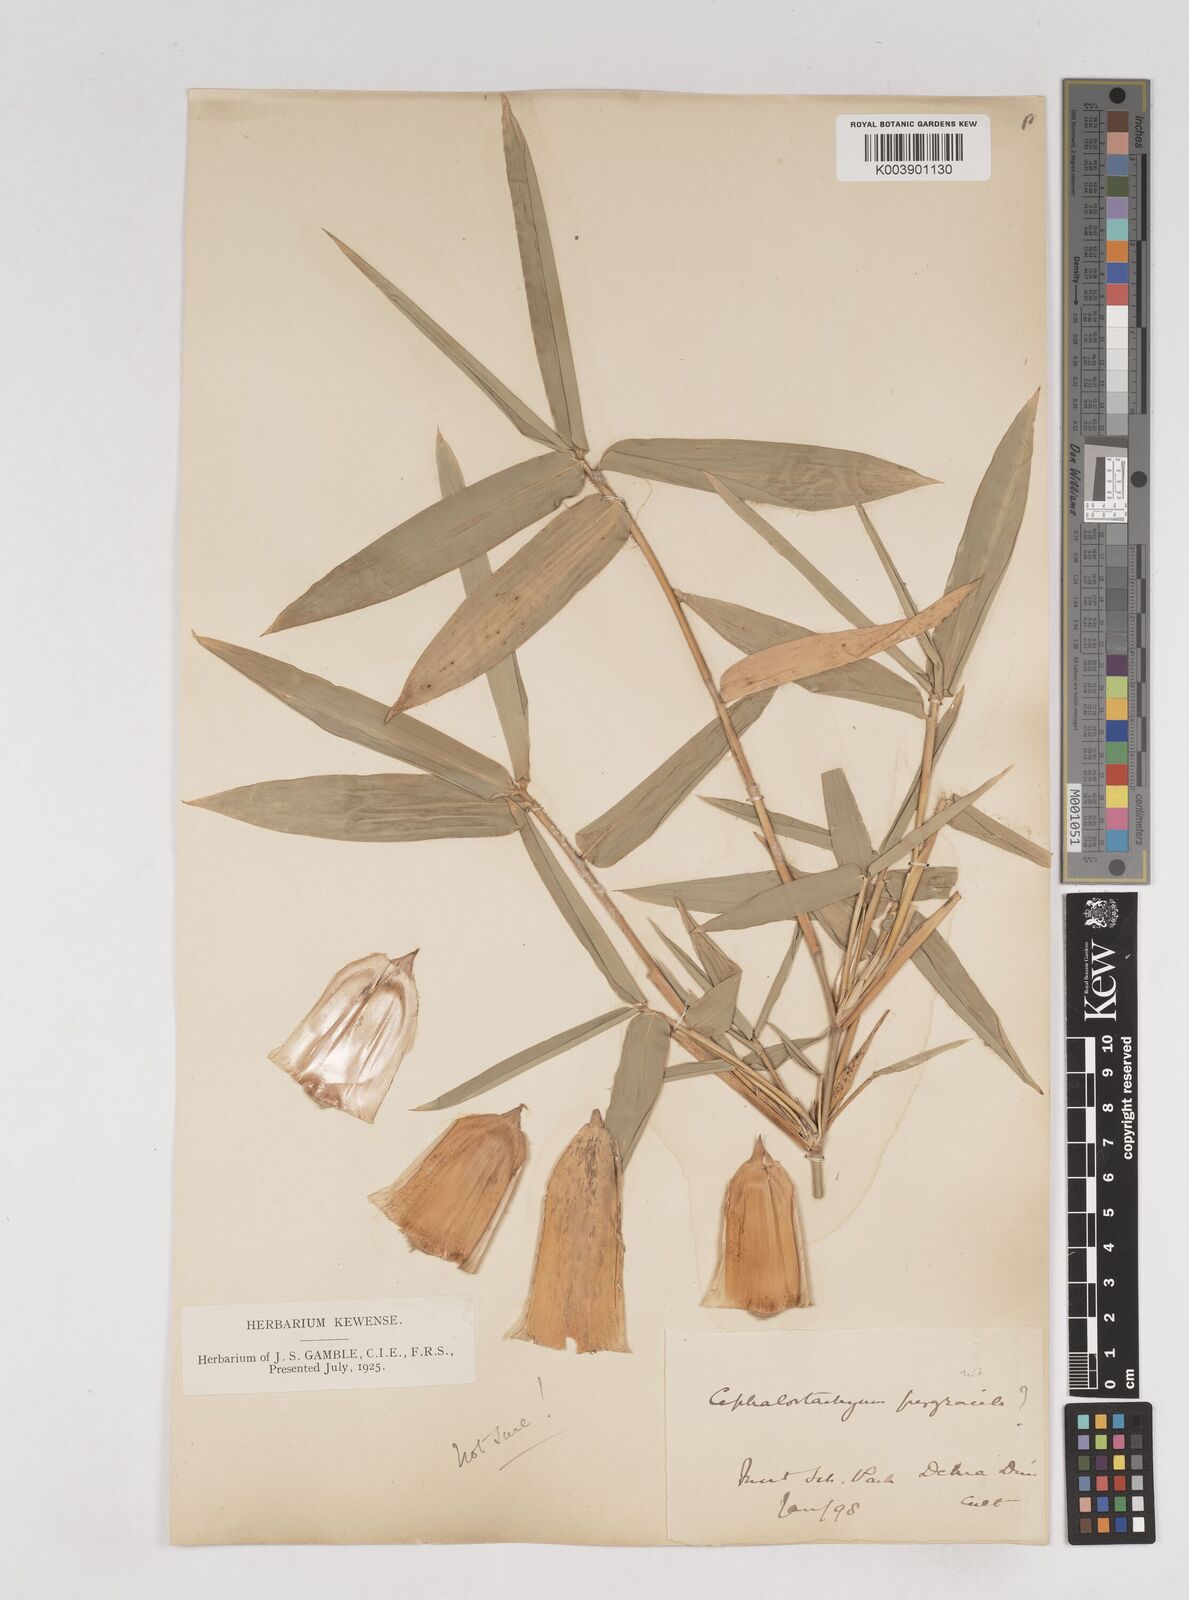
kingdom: Plantae
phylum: Tracheophyta
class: Liliopsida
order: Poales
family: Poaceae
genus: Cephalostachyum
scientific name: Cephalostachyum
